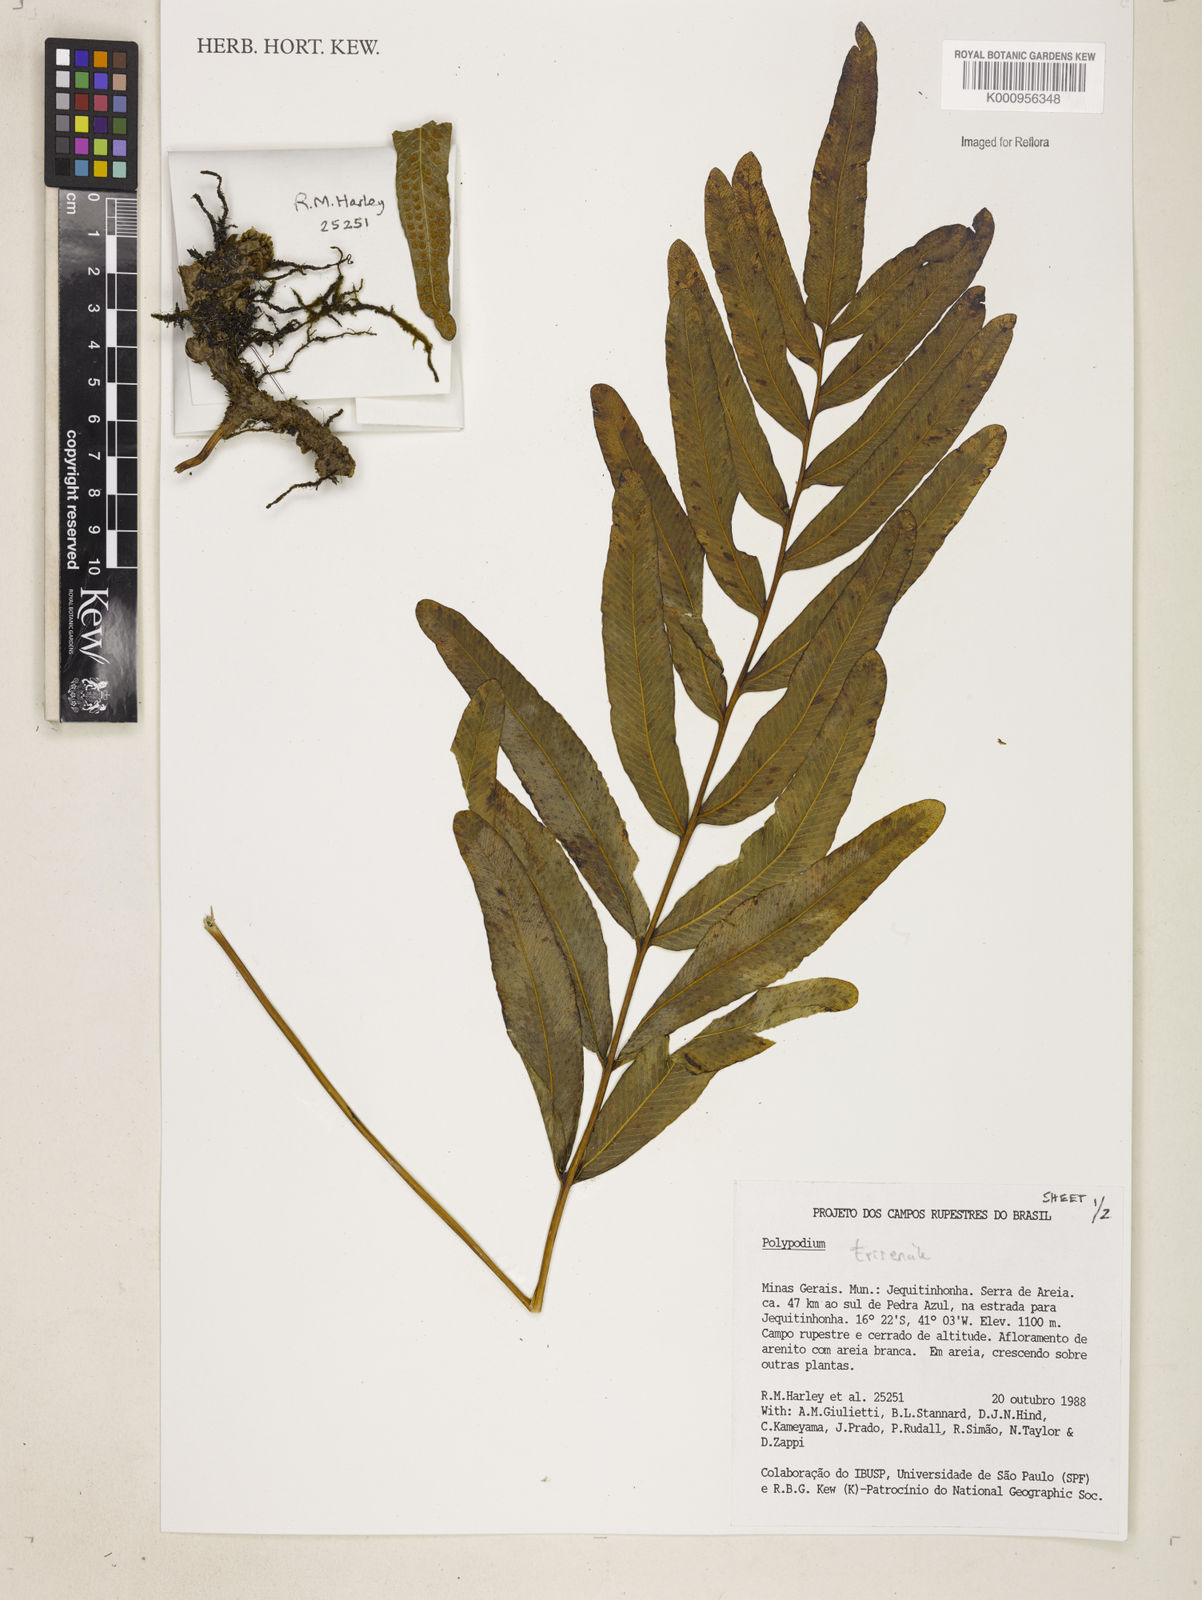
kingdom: Plantae
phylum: Tracheophyta
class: Polypodiopsida
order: Polypodiales
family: Polypodiaceae
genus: Serpocaulon
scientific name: Serpocaulon triseriale
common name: Angle-vein fern
